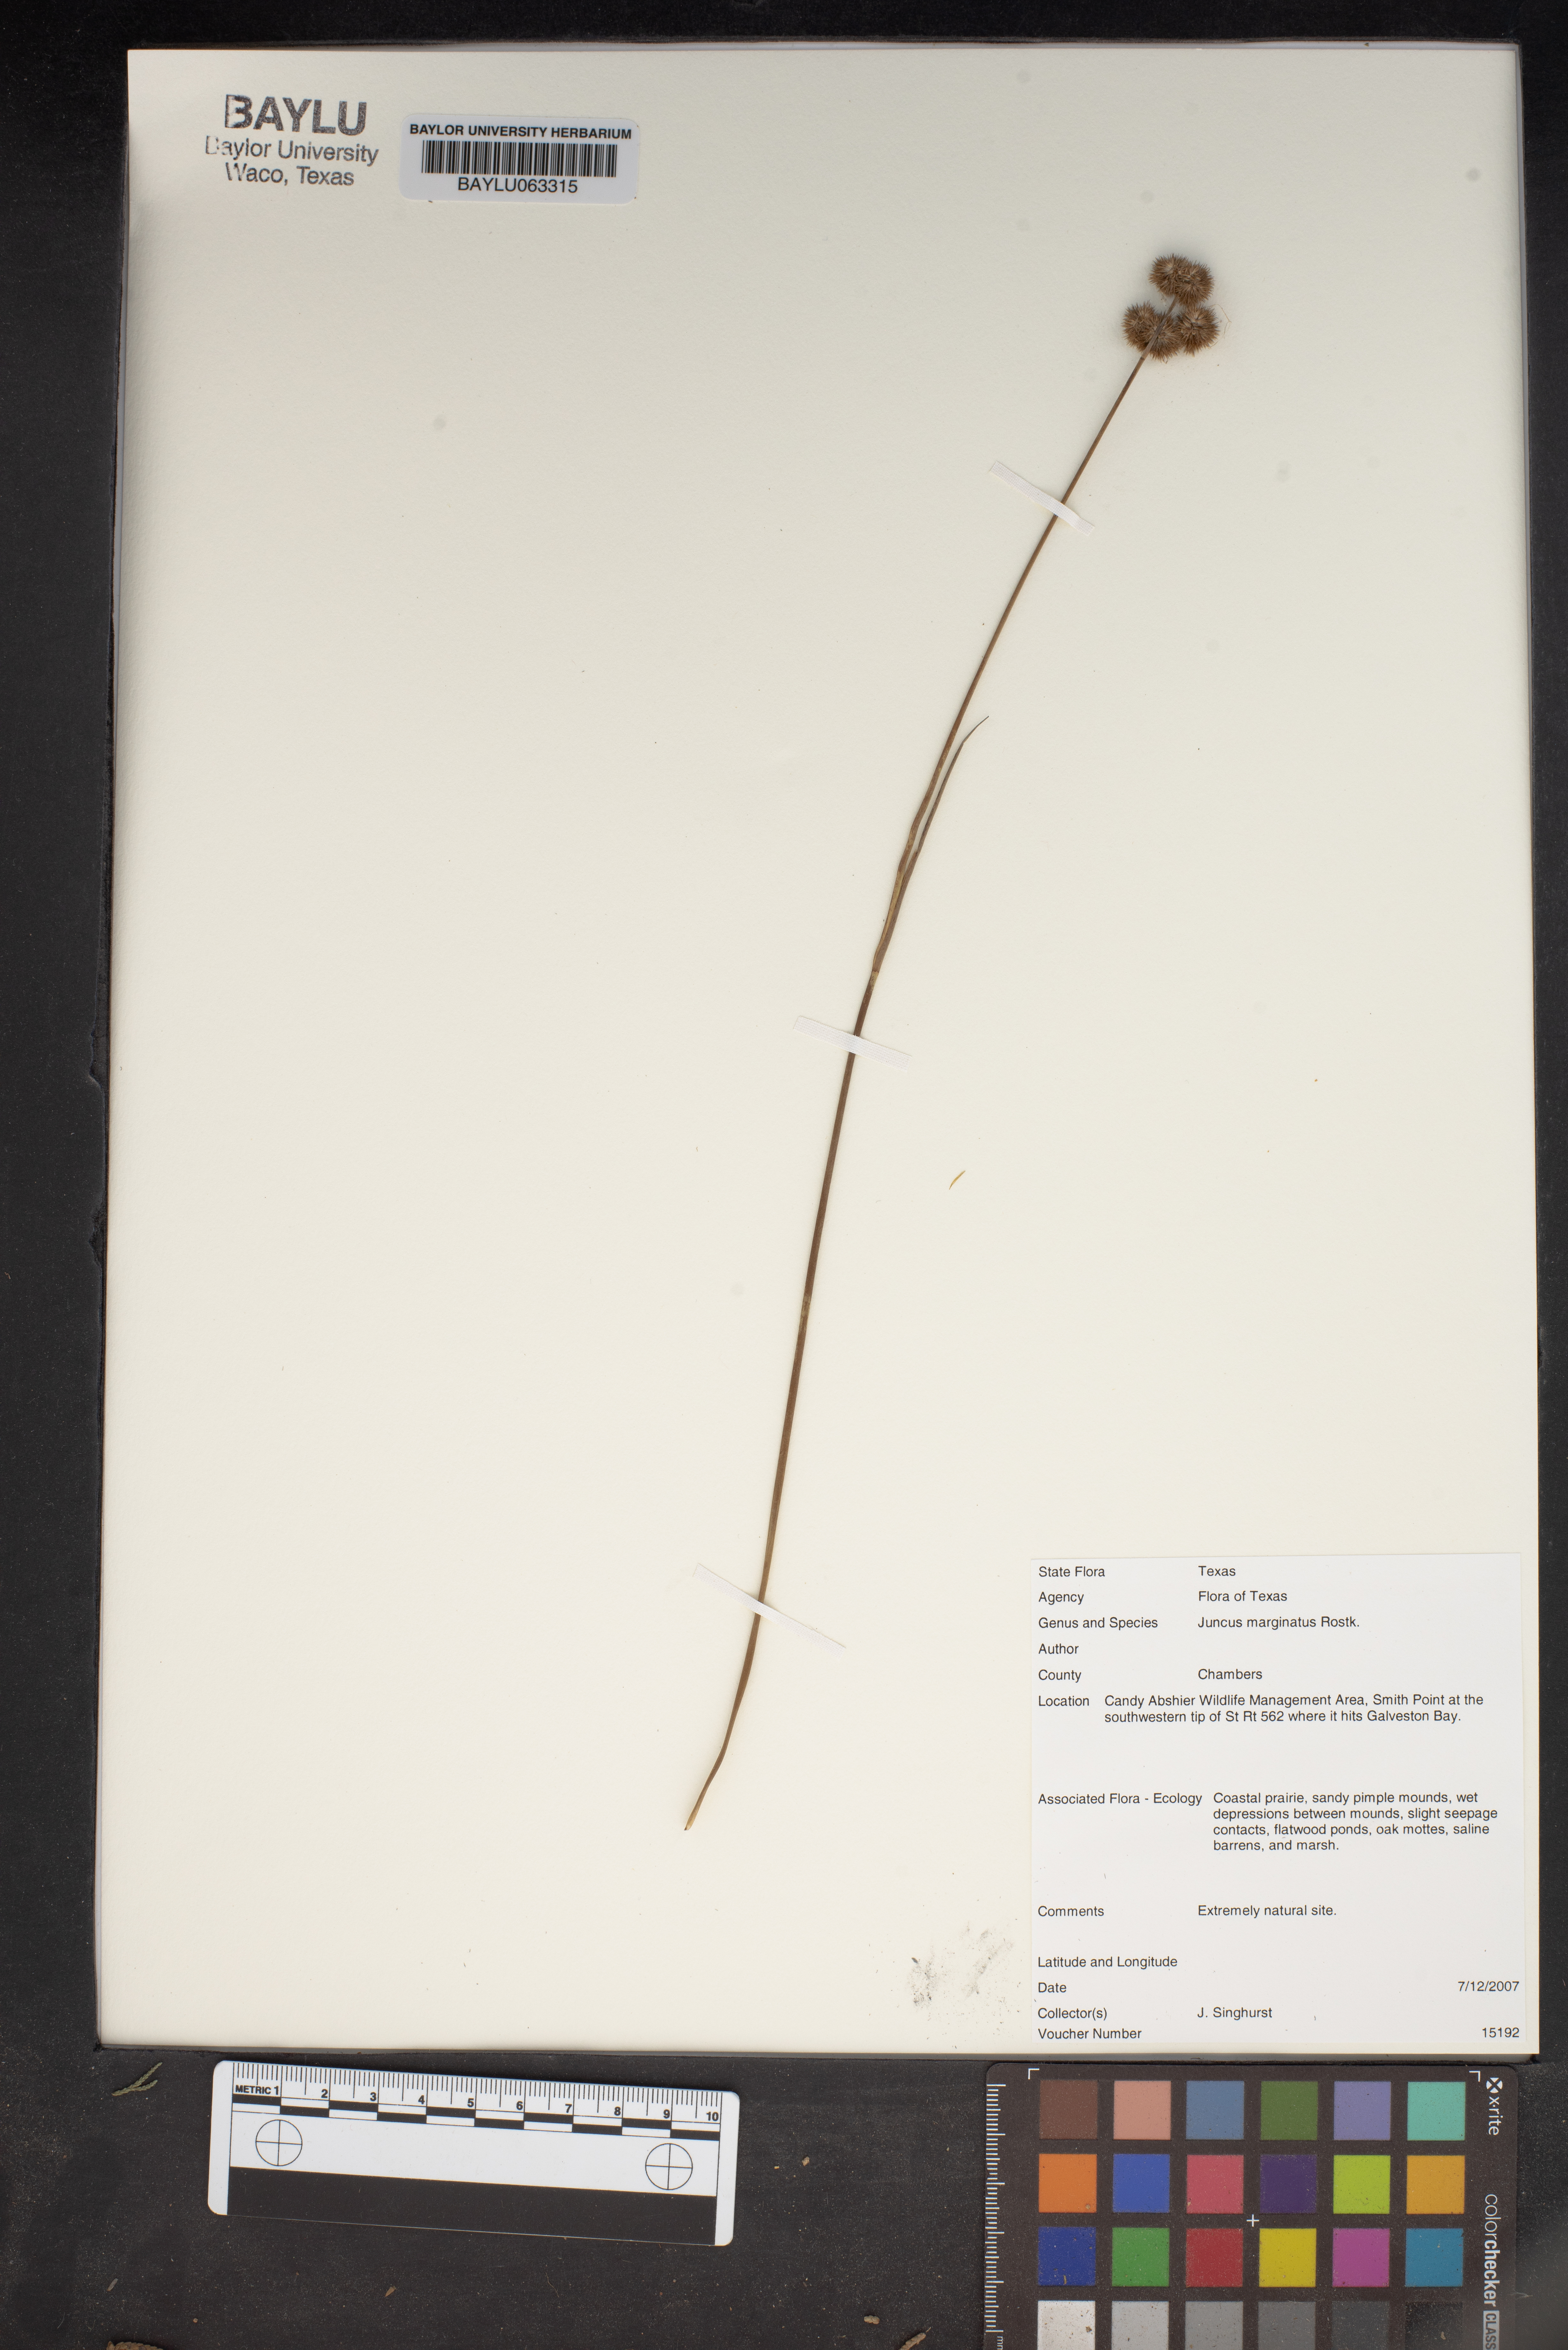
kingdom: Plantae
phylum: Tracheophyta
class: Liliopsida
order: Poales
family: Juncaceae
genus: Juncus
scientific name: Juncus marginatus
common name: Grass-leaf rush
